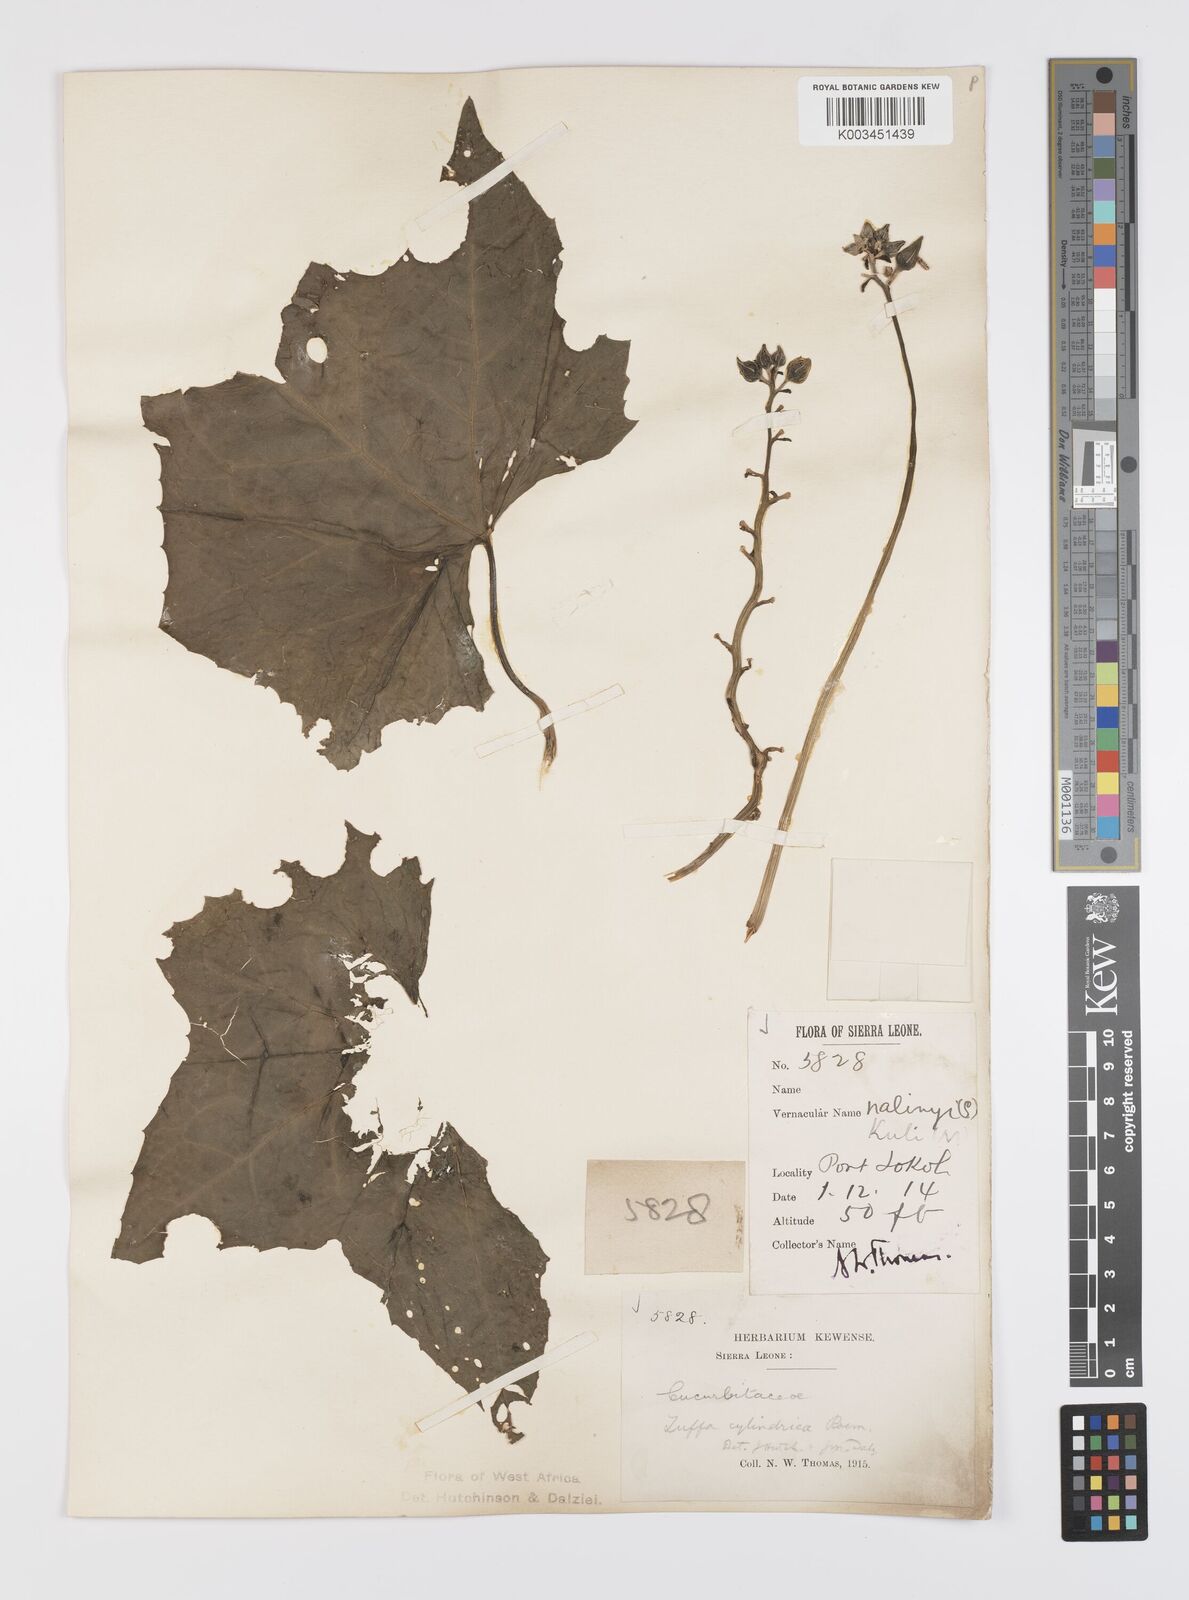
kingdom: Plantae
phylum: Tracheophyta
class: Magnoliopsida
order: Cucurbitales
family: Cucurbitaceae
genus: Luffa
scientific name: Luffa aegyptiaca
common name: Sponge gourd
